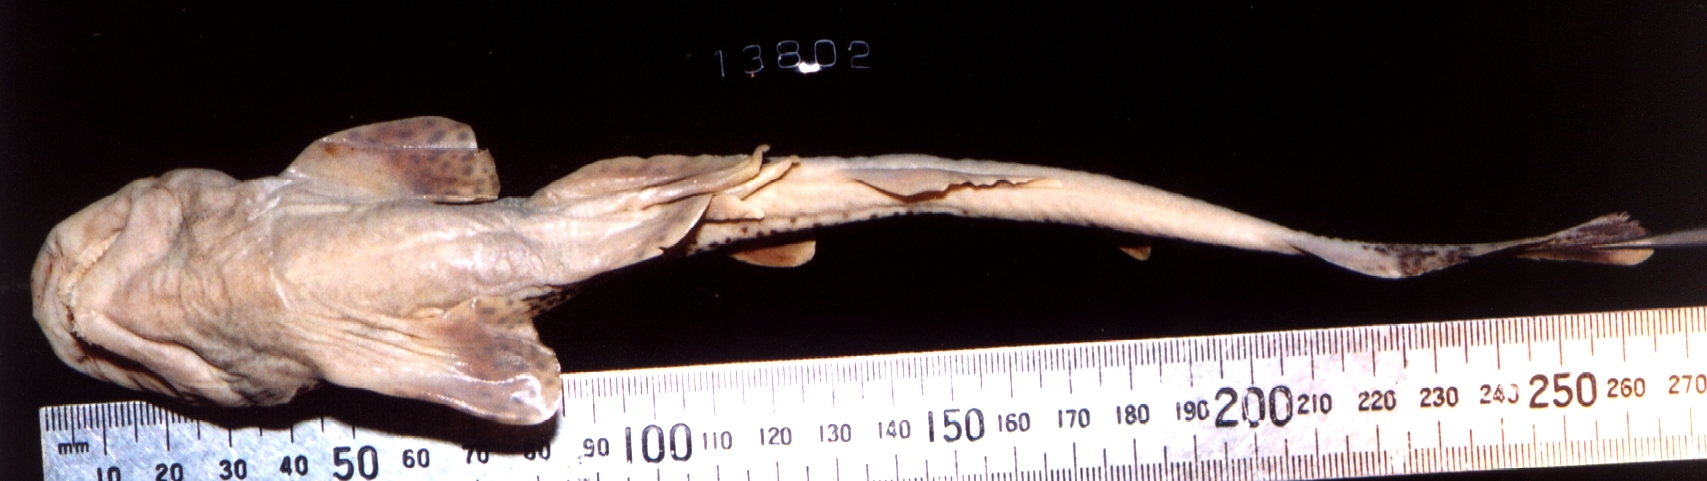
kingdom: Animalia
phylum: Chordata
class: Elasmobranchii
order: Carcharhiniformes
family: Scyliorhinidae
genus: Holohalaelurus
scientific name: Holohalaelurus favus
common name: African spotted catshark
